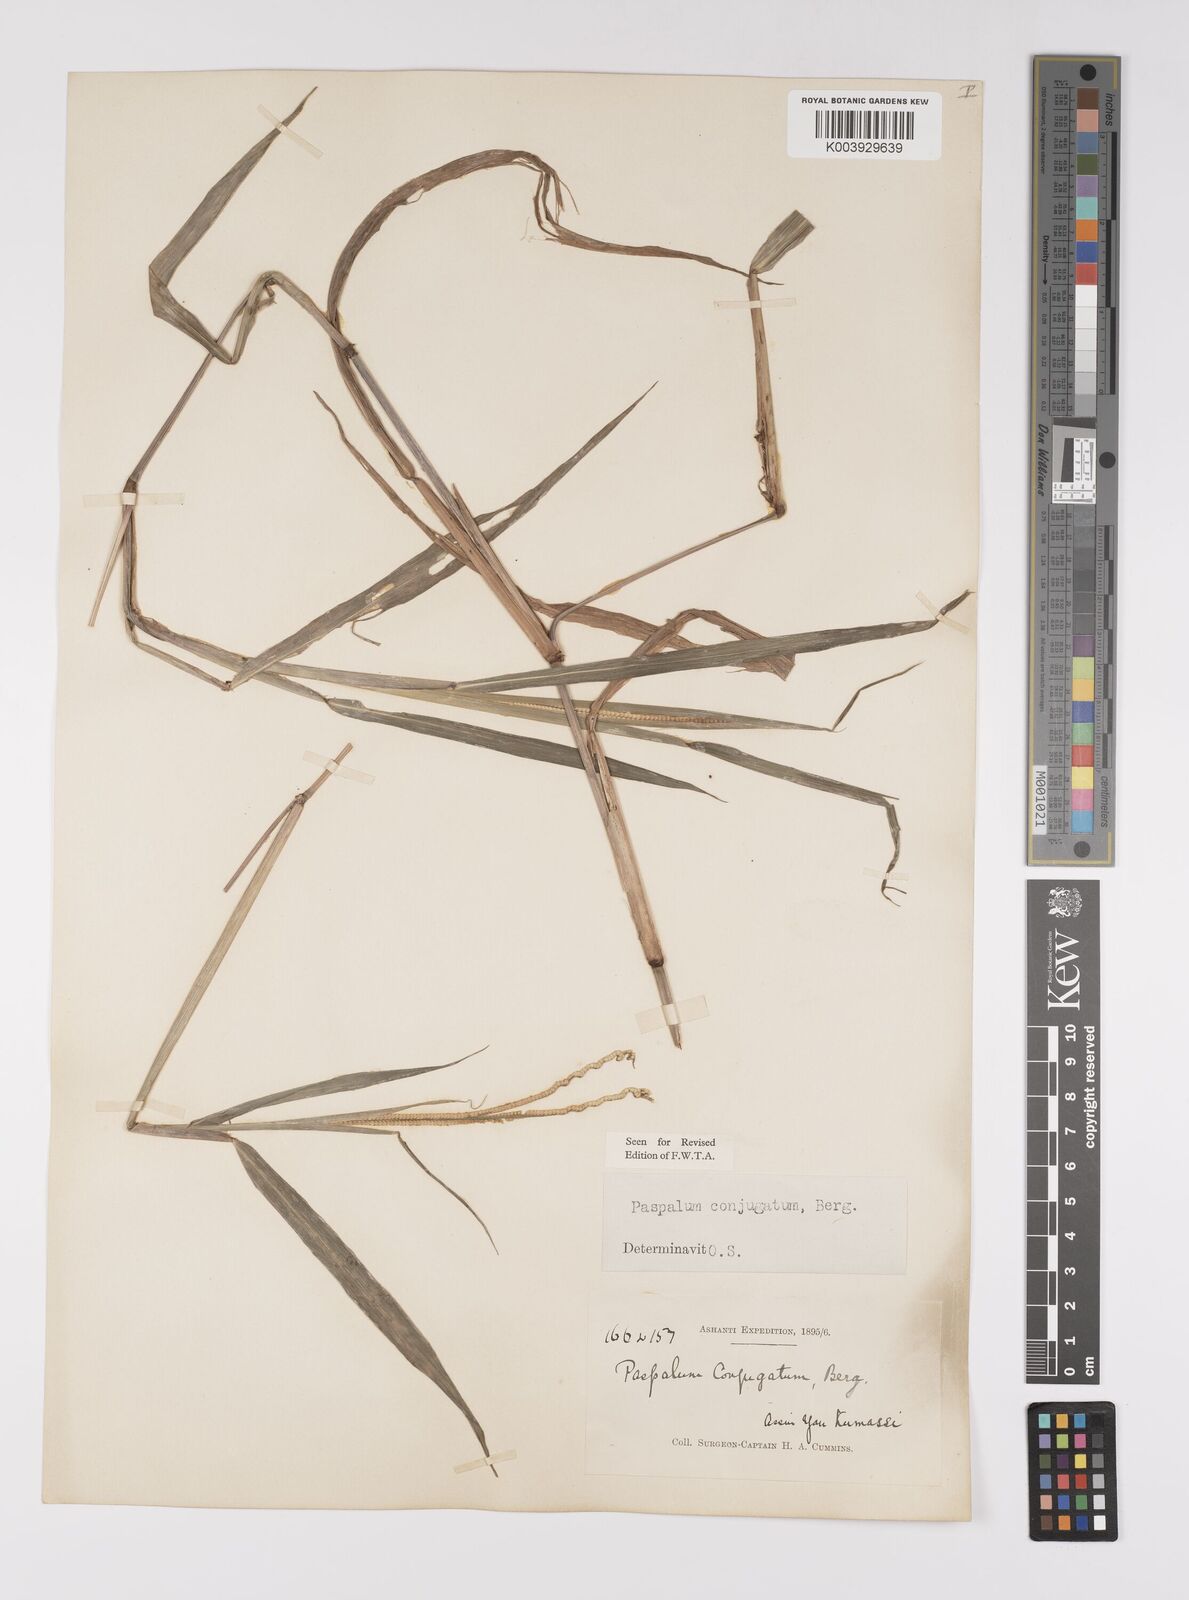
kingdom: Plantae
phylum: Tracheophyta
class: Liliopsida
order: Poales
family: Poaceae
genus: Paspalum
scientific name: Paspalum conjugatum
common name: Hilograss
